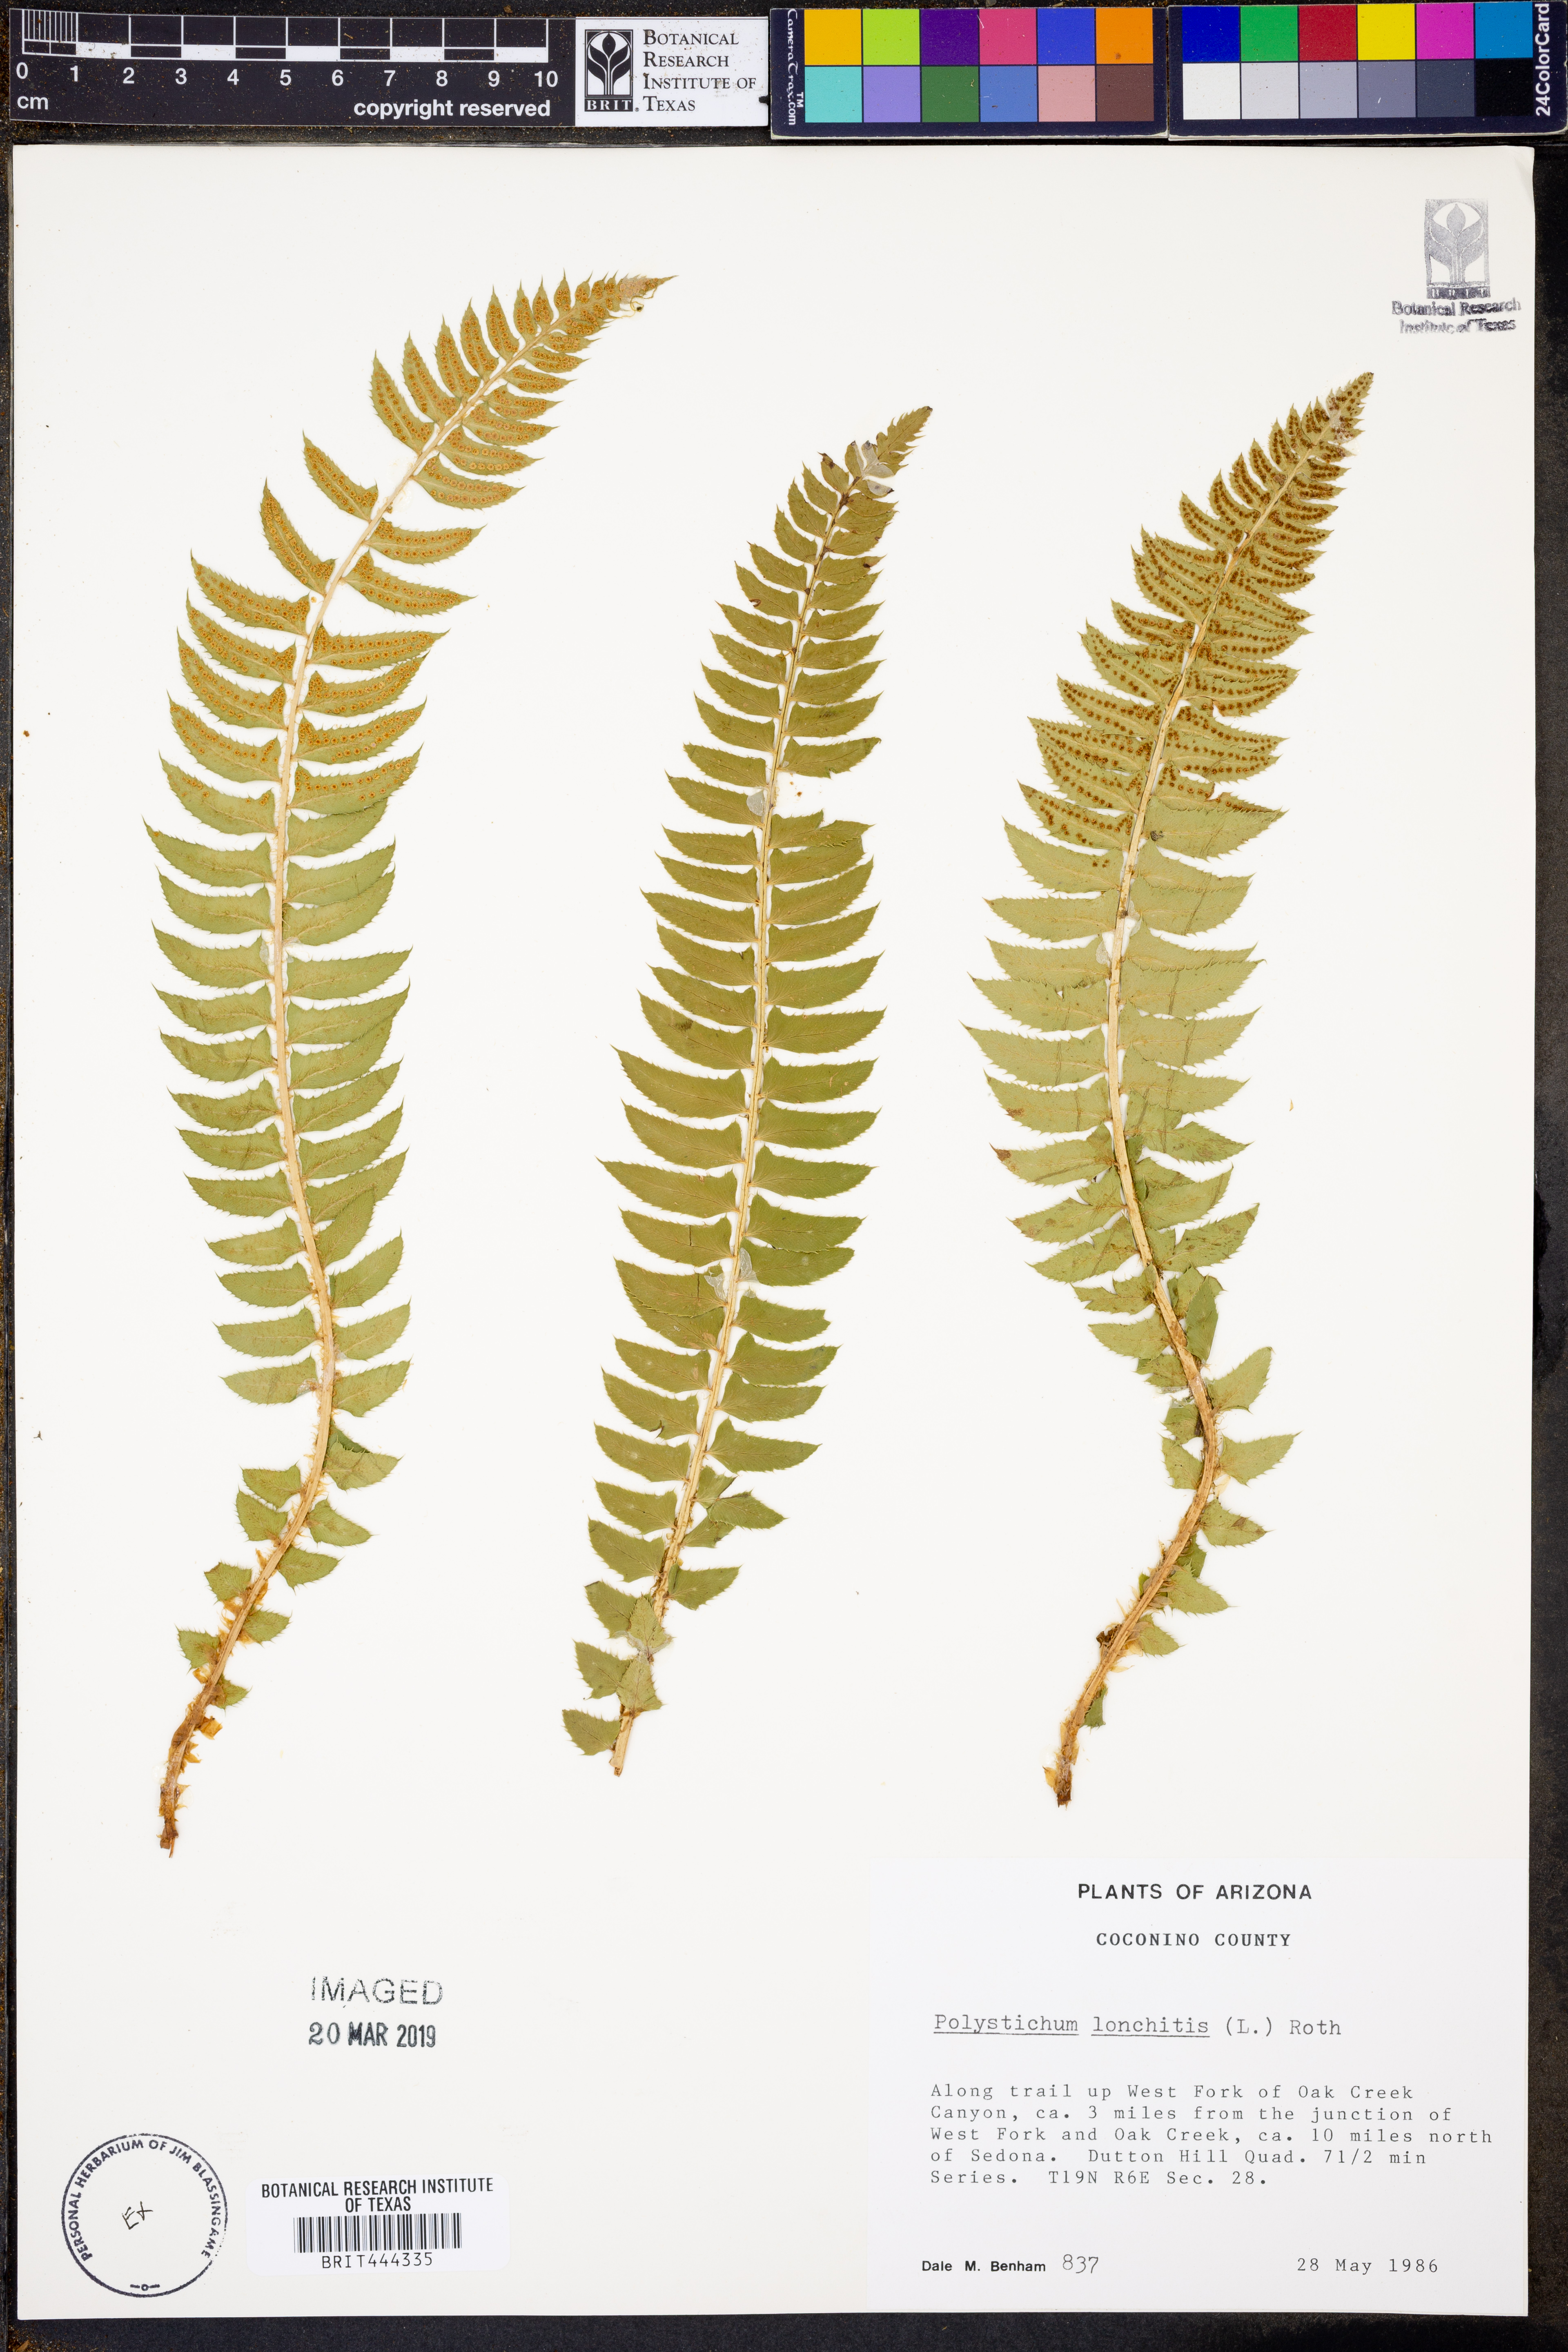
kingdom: Plantae
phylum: Tracheophyta
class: Polypodiopsida
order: Polypodiales
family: Dryopteridaceae
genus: Polystichum
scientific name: Polystichum lonchitis
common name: Holly fern
